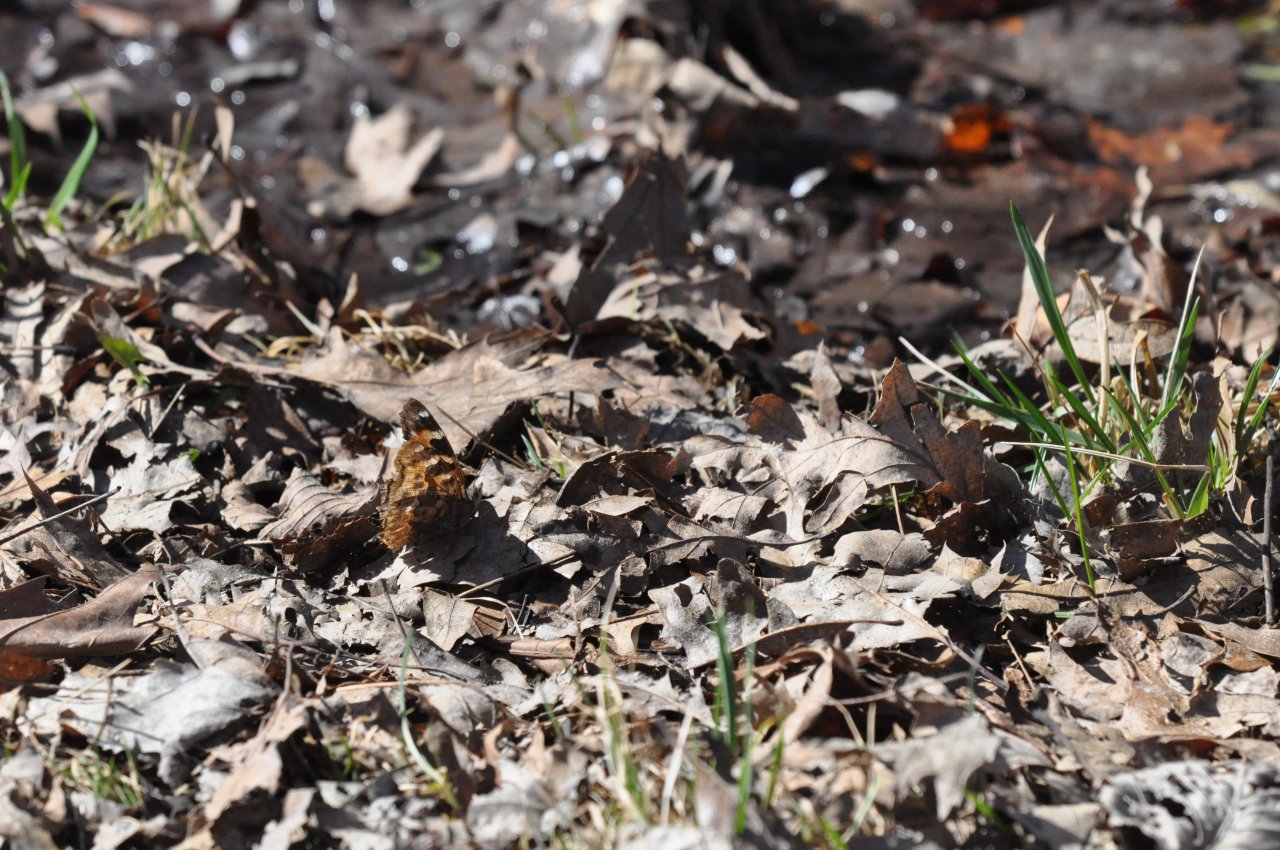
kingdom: Animalia
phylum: Arthropoda
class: Insecta
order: Lepidoptera
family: Nymphalidae
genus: Polygonia
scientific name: Polygonia vaualbum
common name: Compton Tortoiseshell
